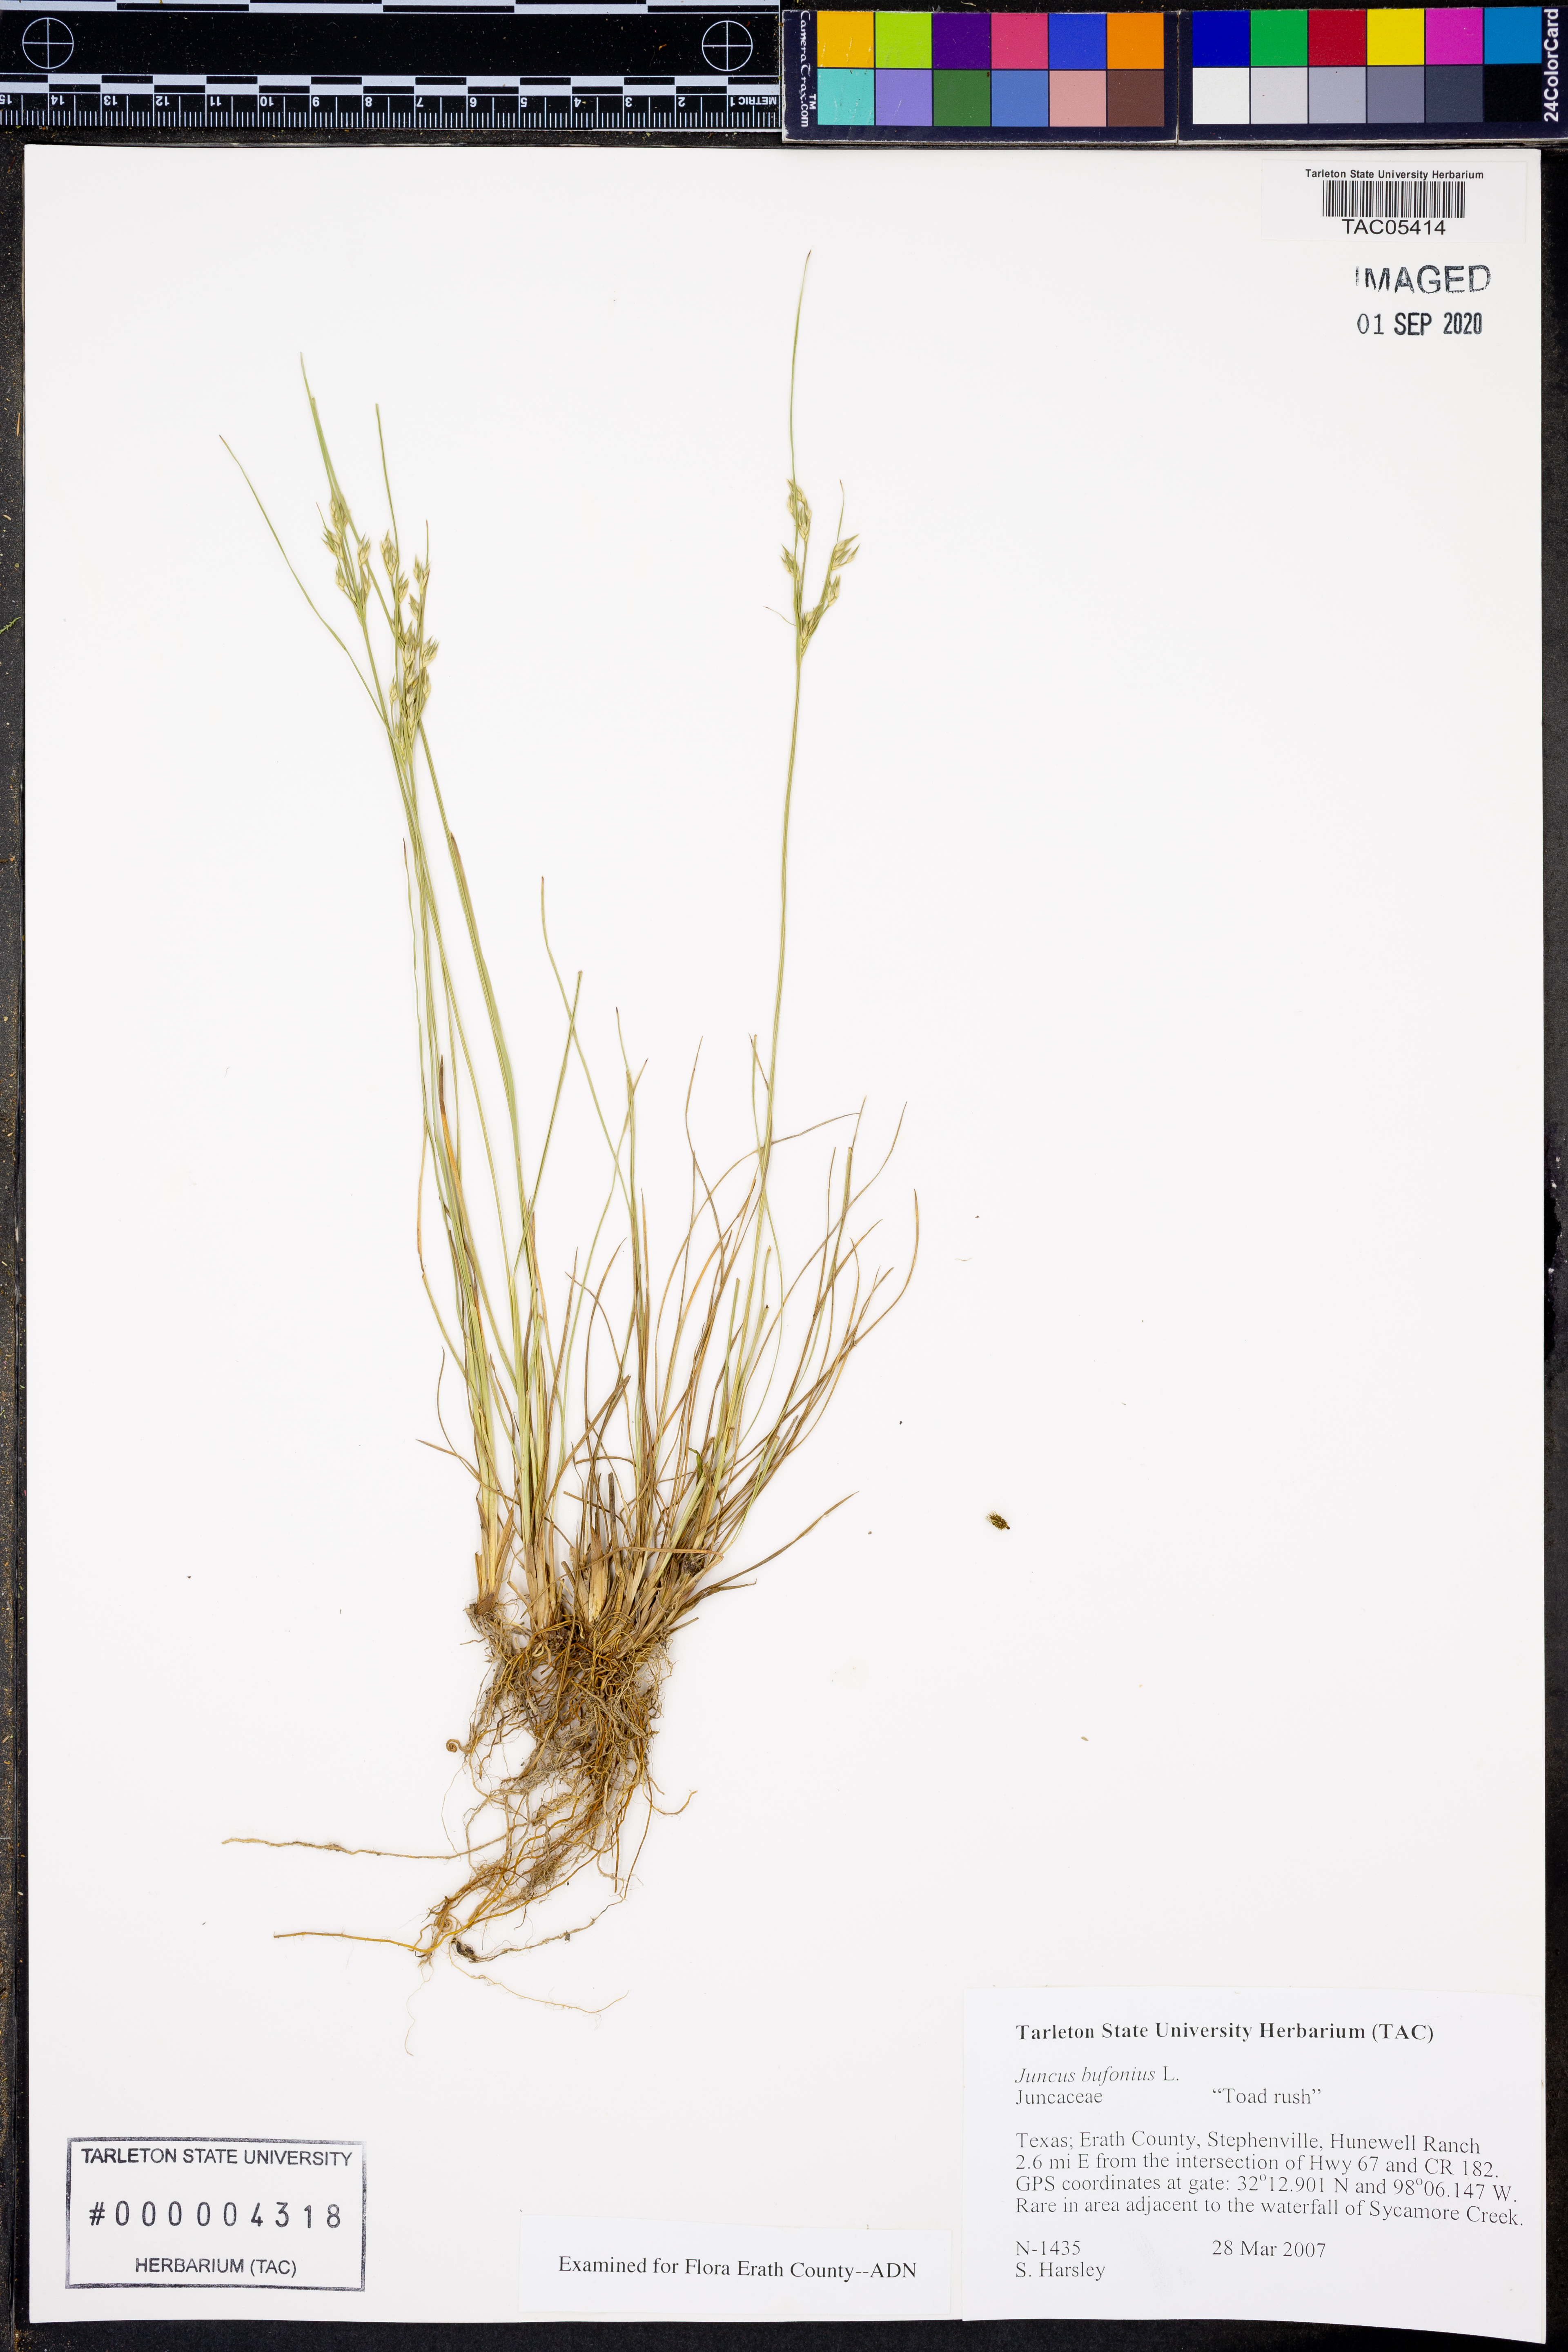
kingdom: Plantae
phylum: Tracheophyta
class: Liliopsida
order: Poales
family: Juncaceae
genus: Juncus
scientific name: Juncus bufonius
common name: Toad rush
